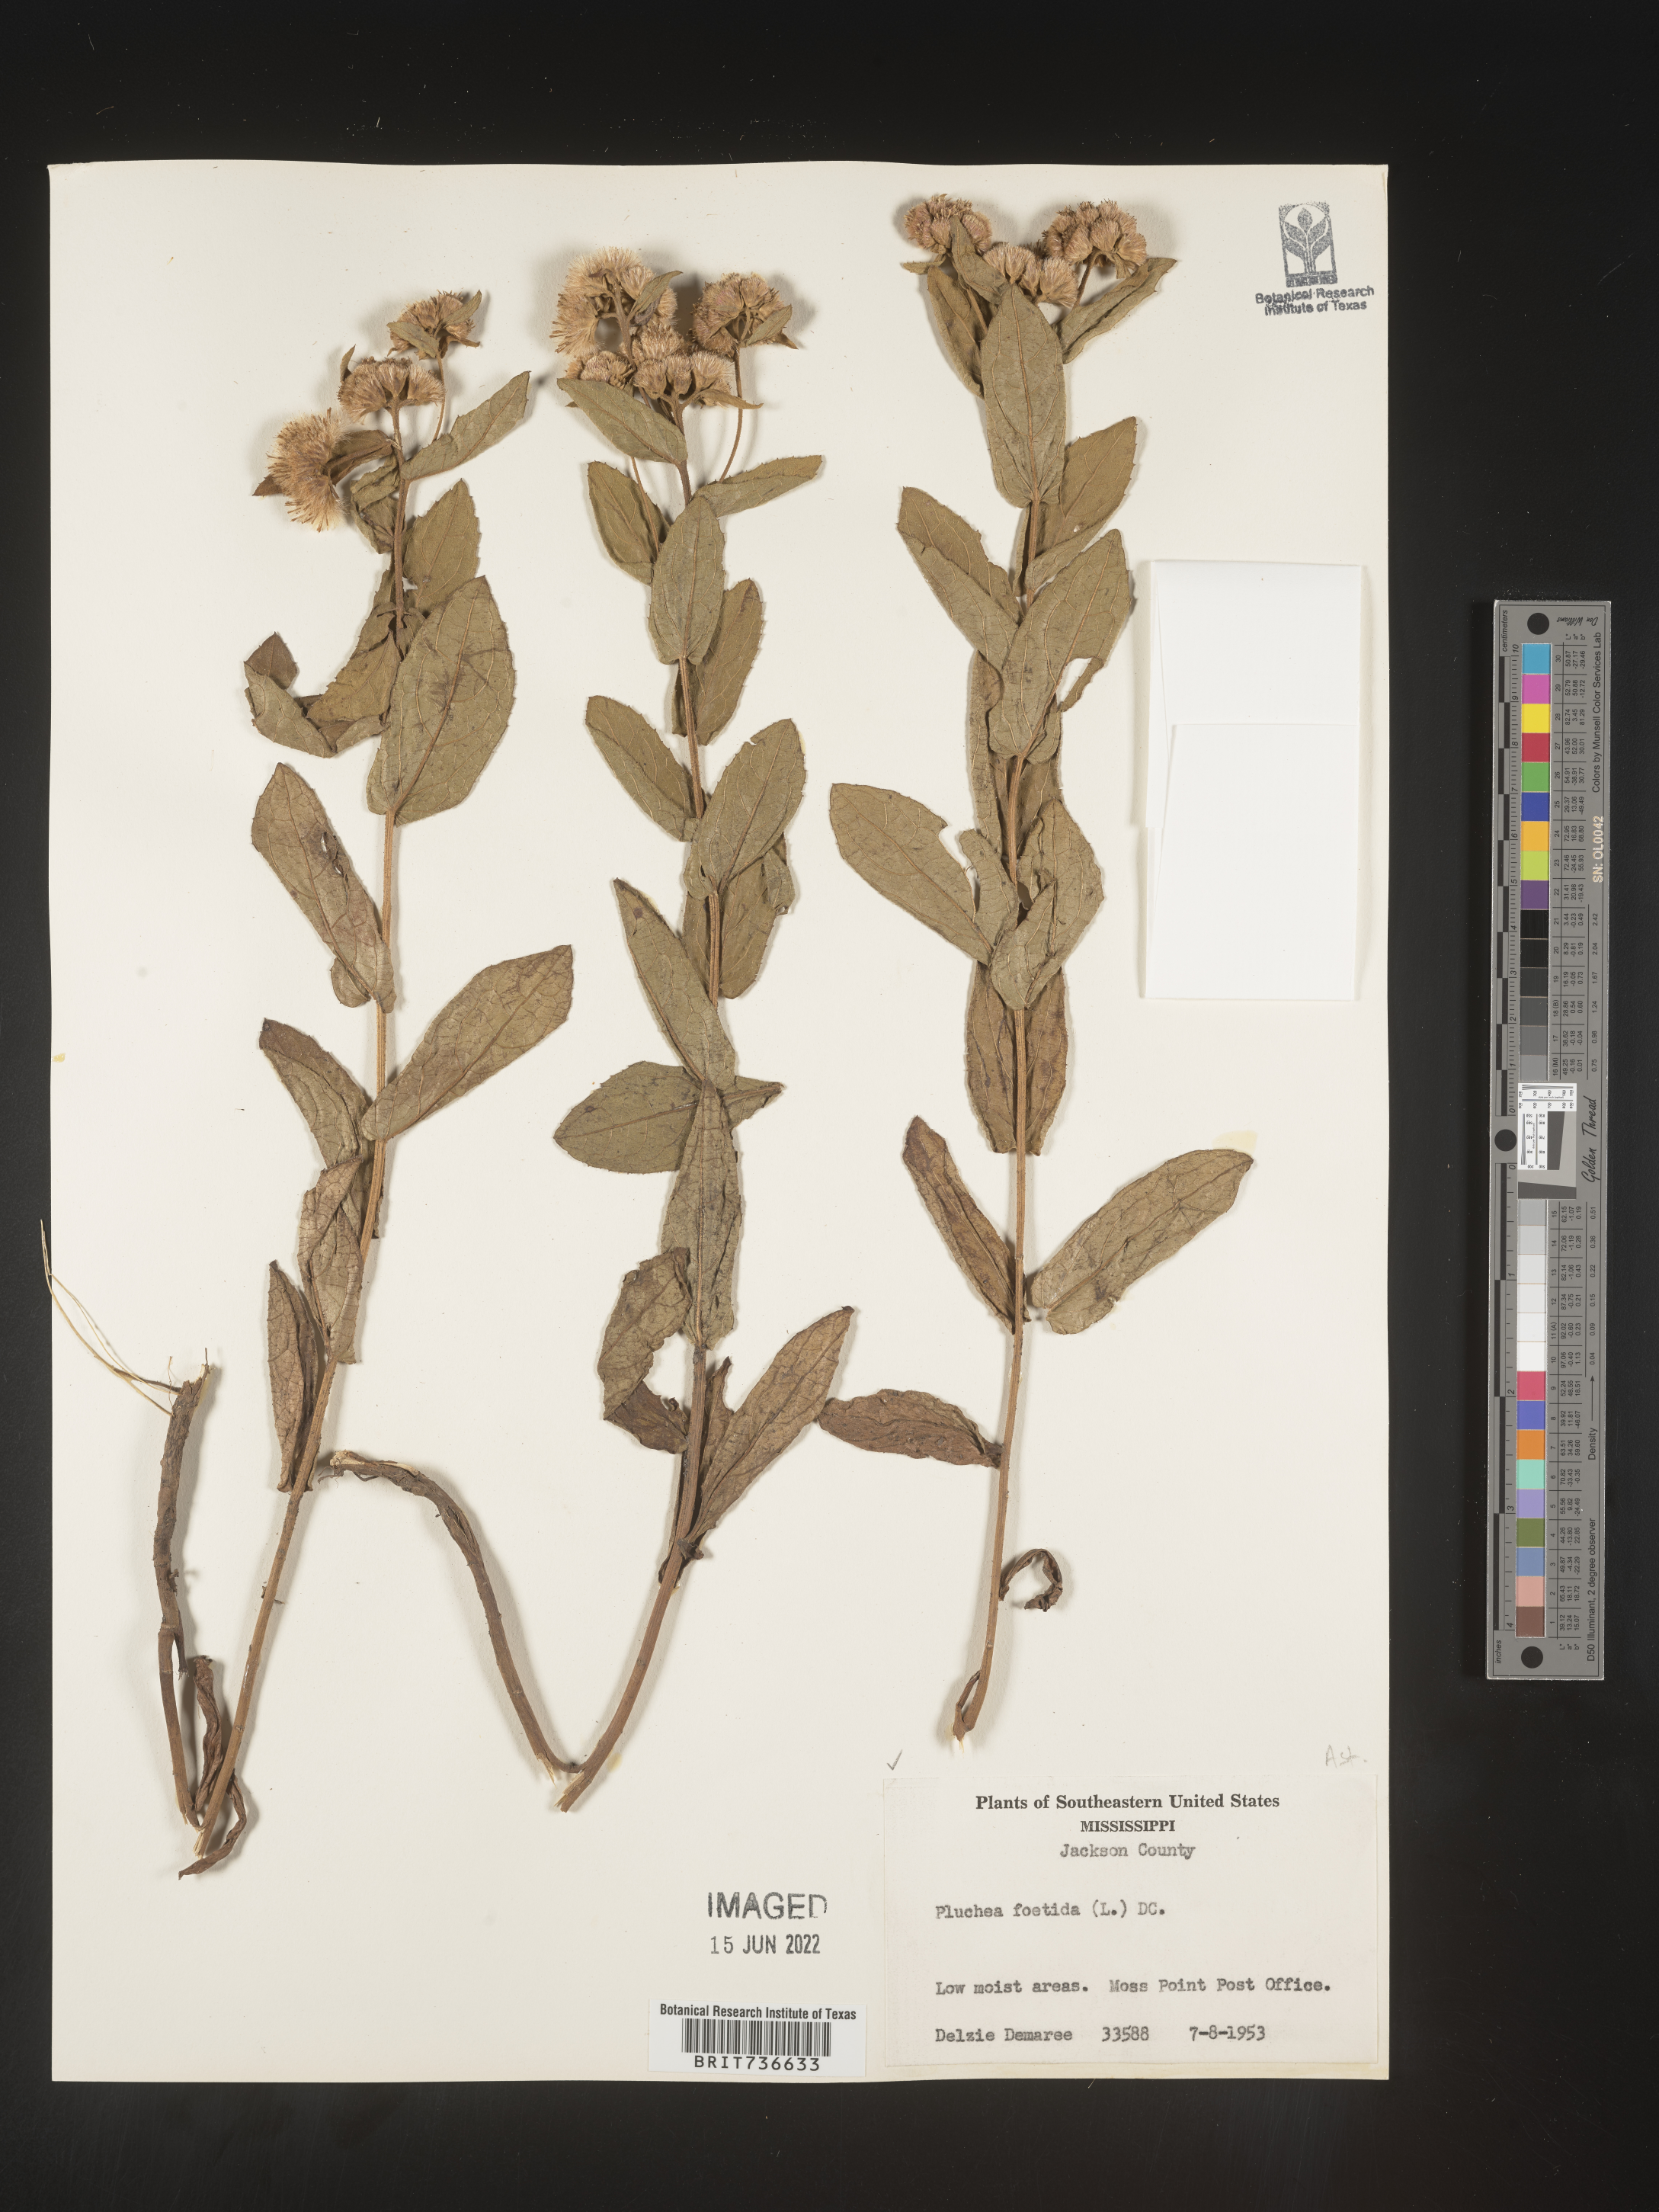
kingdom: Plantae
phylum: Tracheophyta
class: Magnoliopsida
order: Asterales
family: Asteraceae
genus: Pluchea
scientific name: Pluchea foetida
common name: Stinking camphorweed
